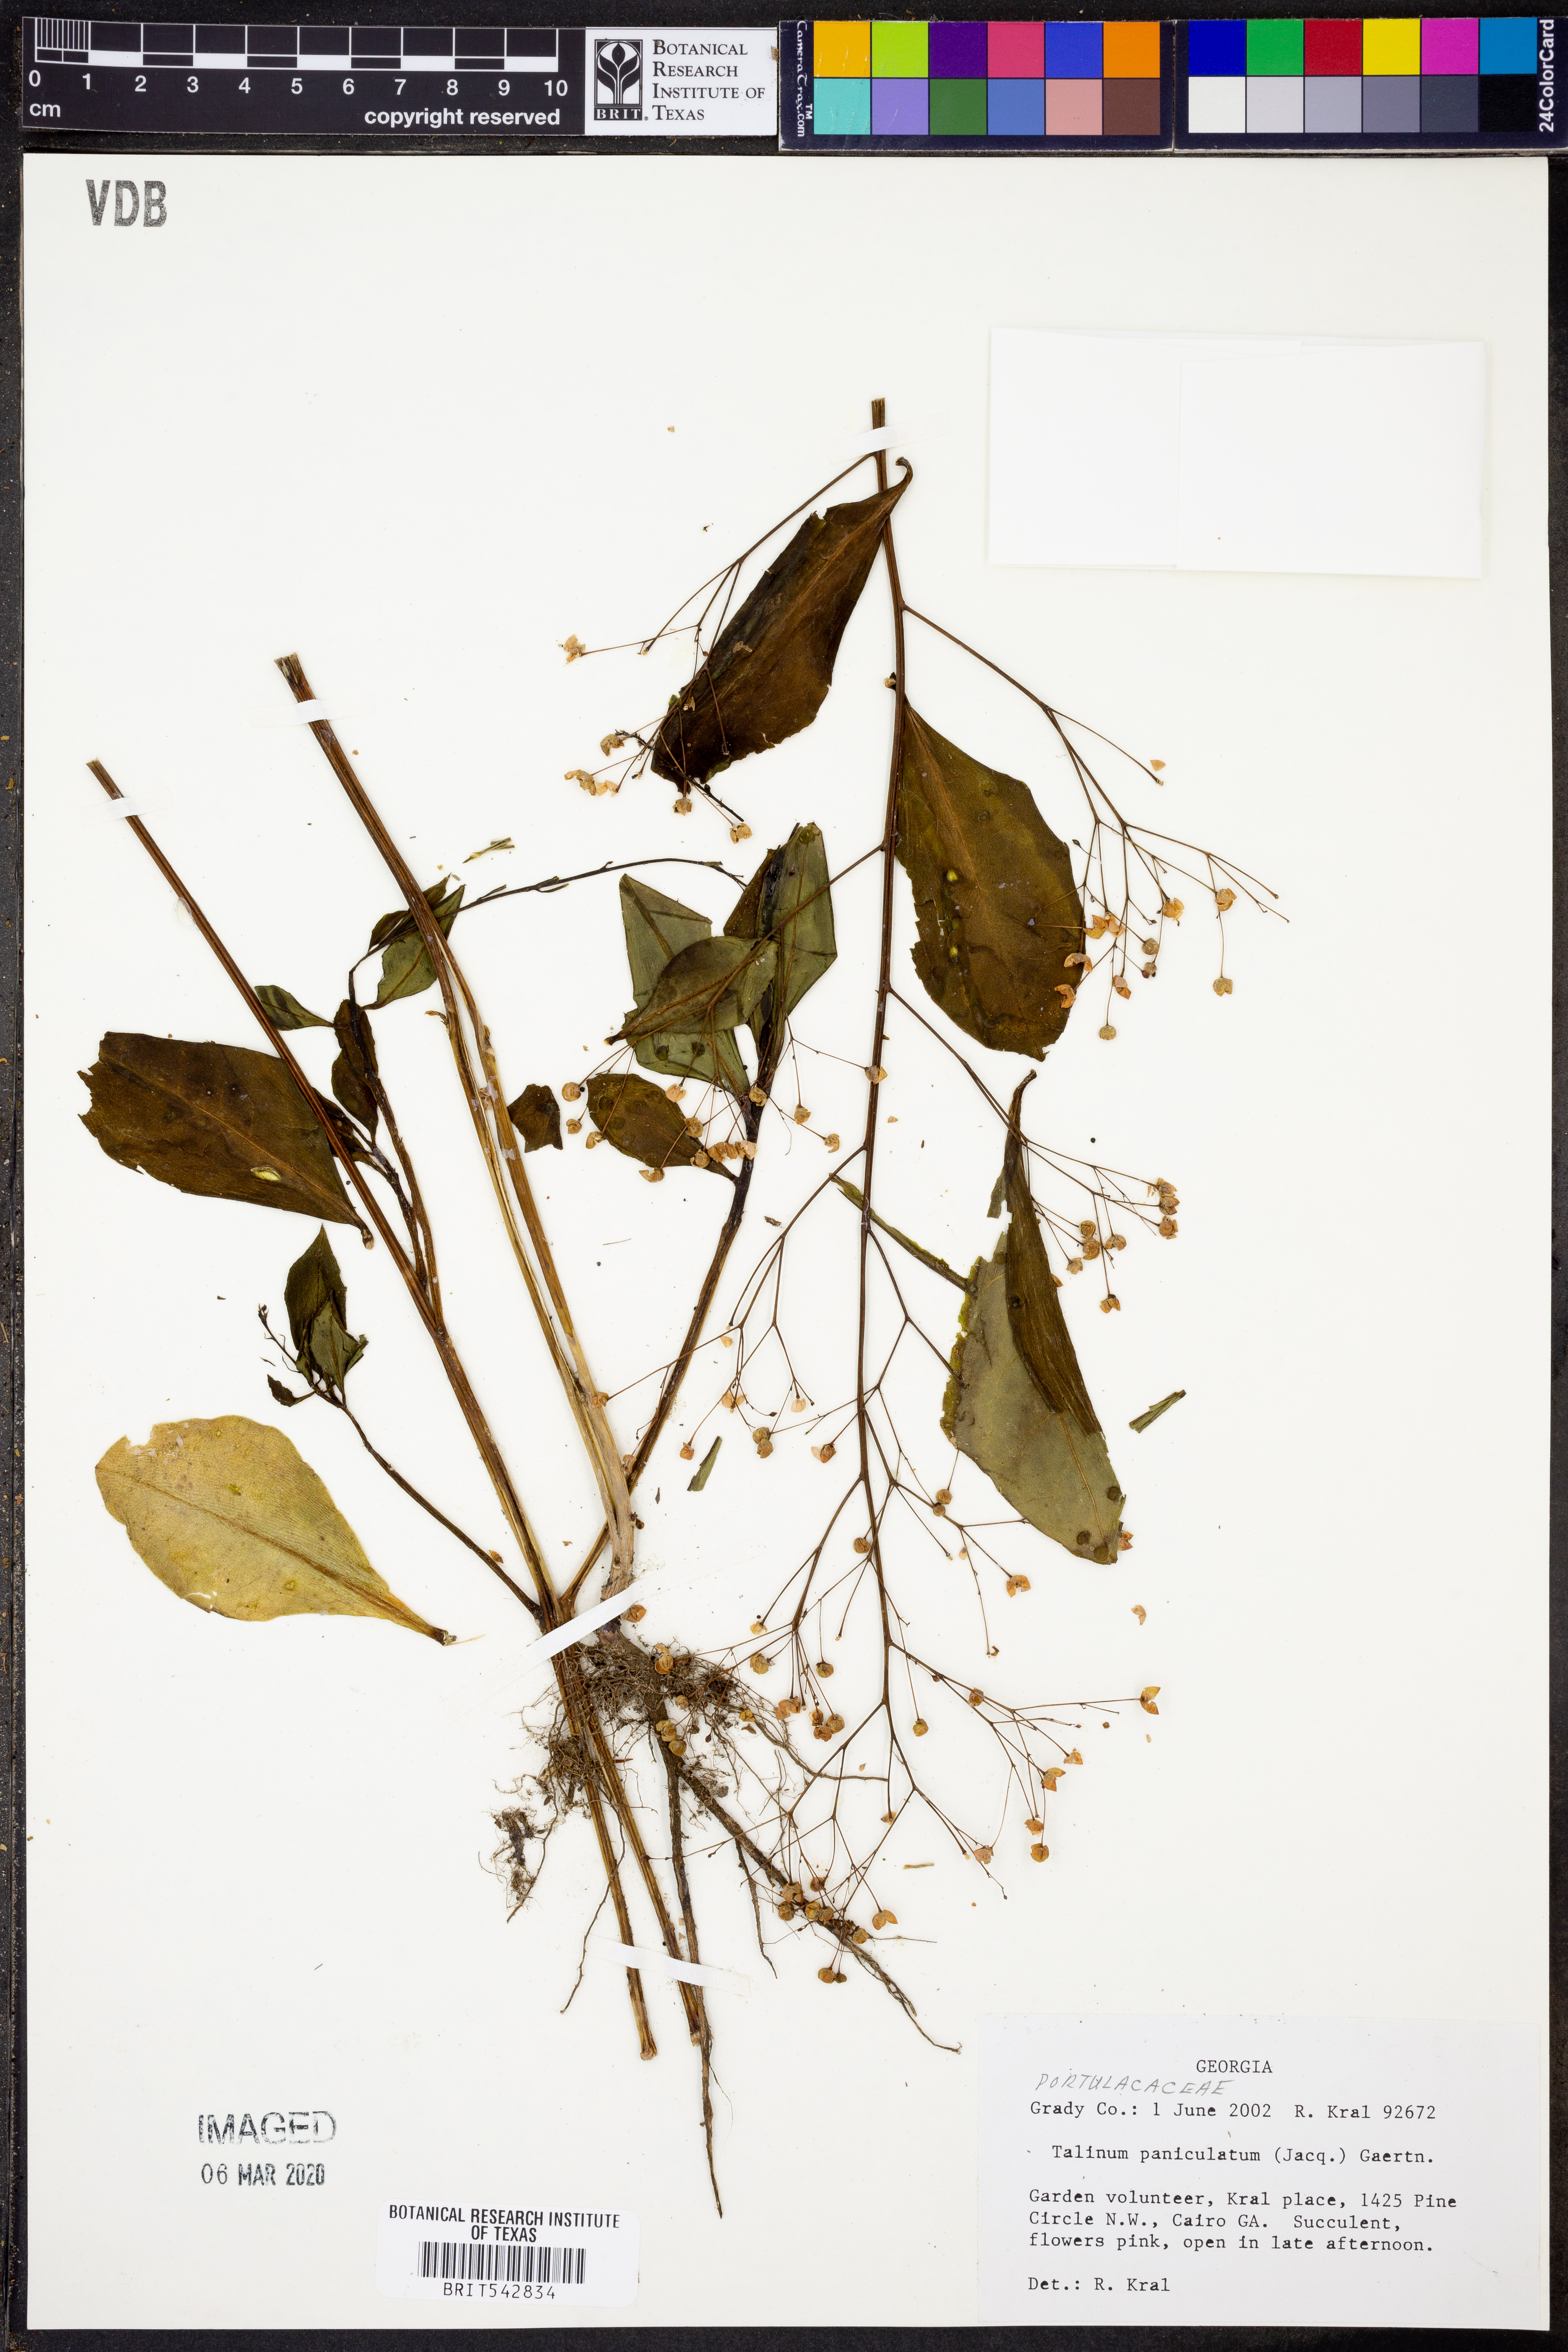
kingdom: Plantae
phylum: Tracheophyta
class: Magnoliopsida
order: Caryophyllales
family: Talinaceae
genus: Talinum
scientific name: Talinum paniculatum
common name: Jewels of opar
